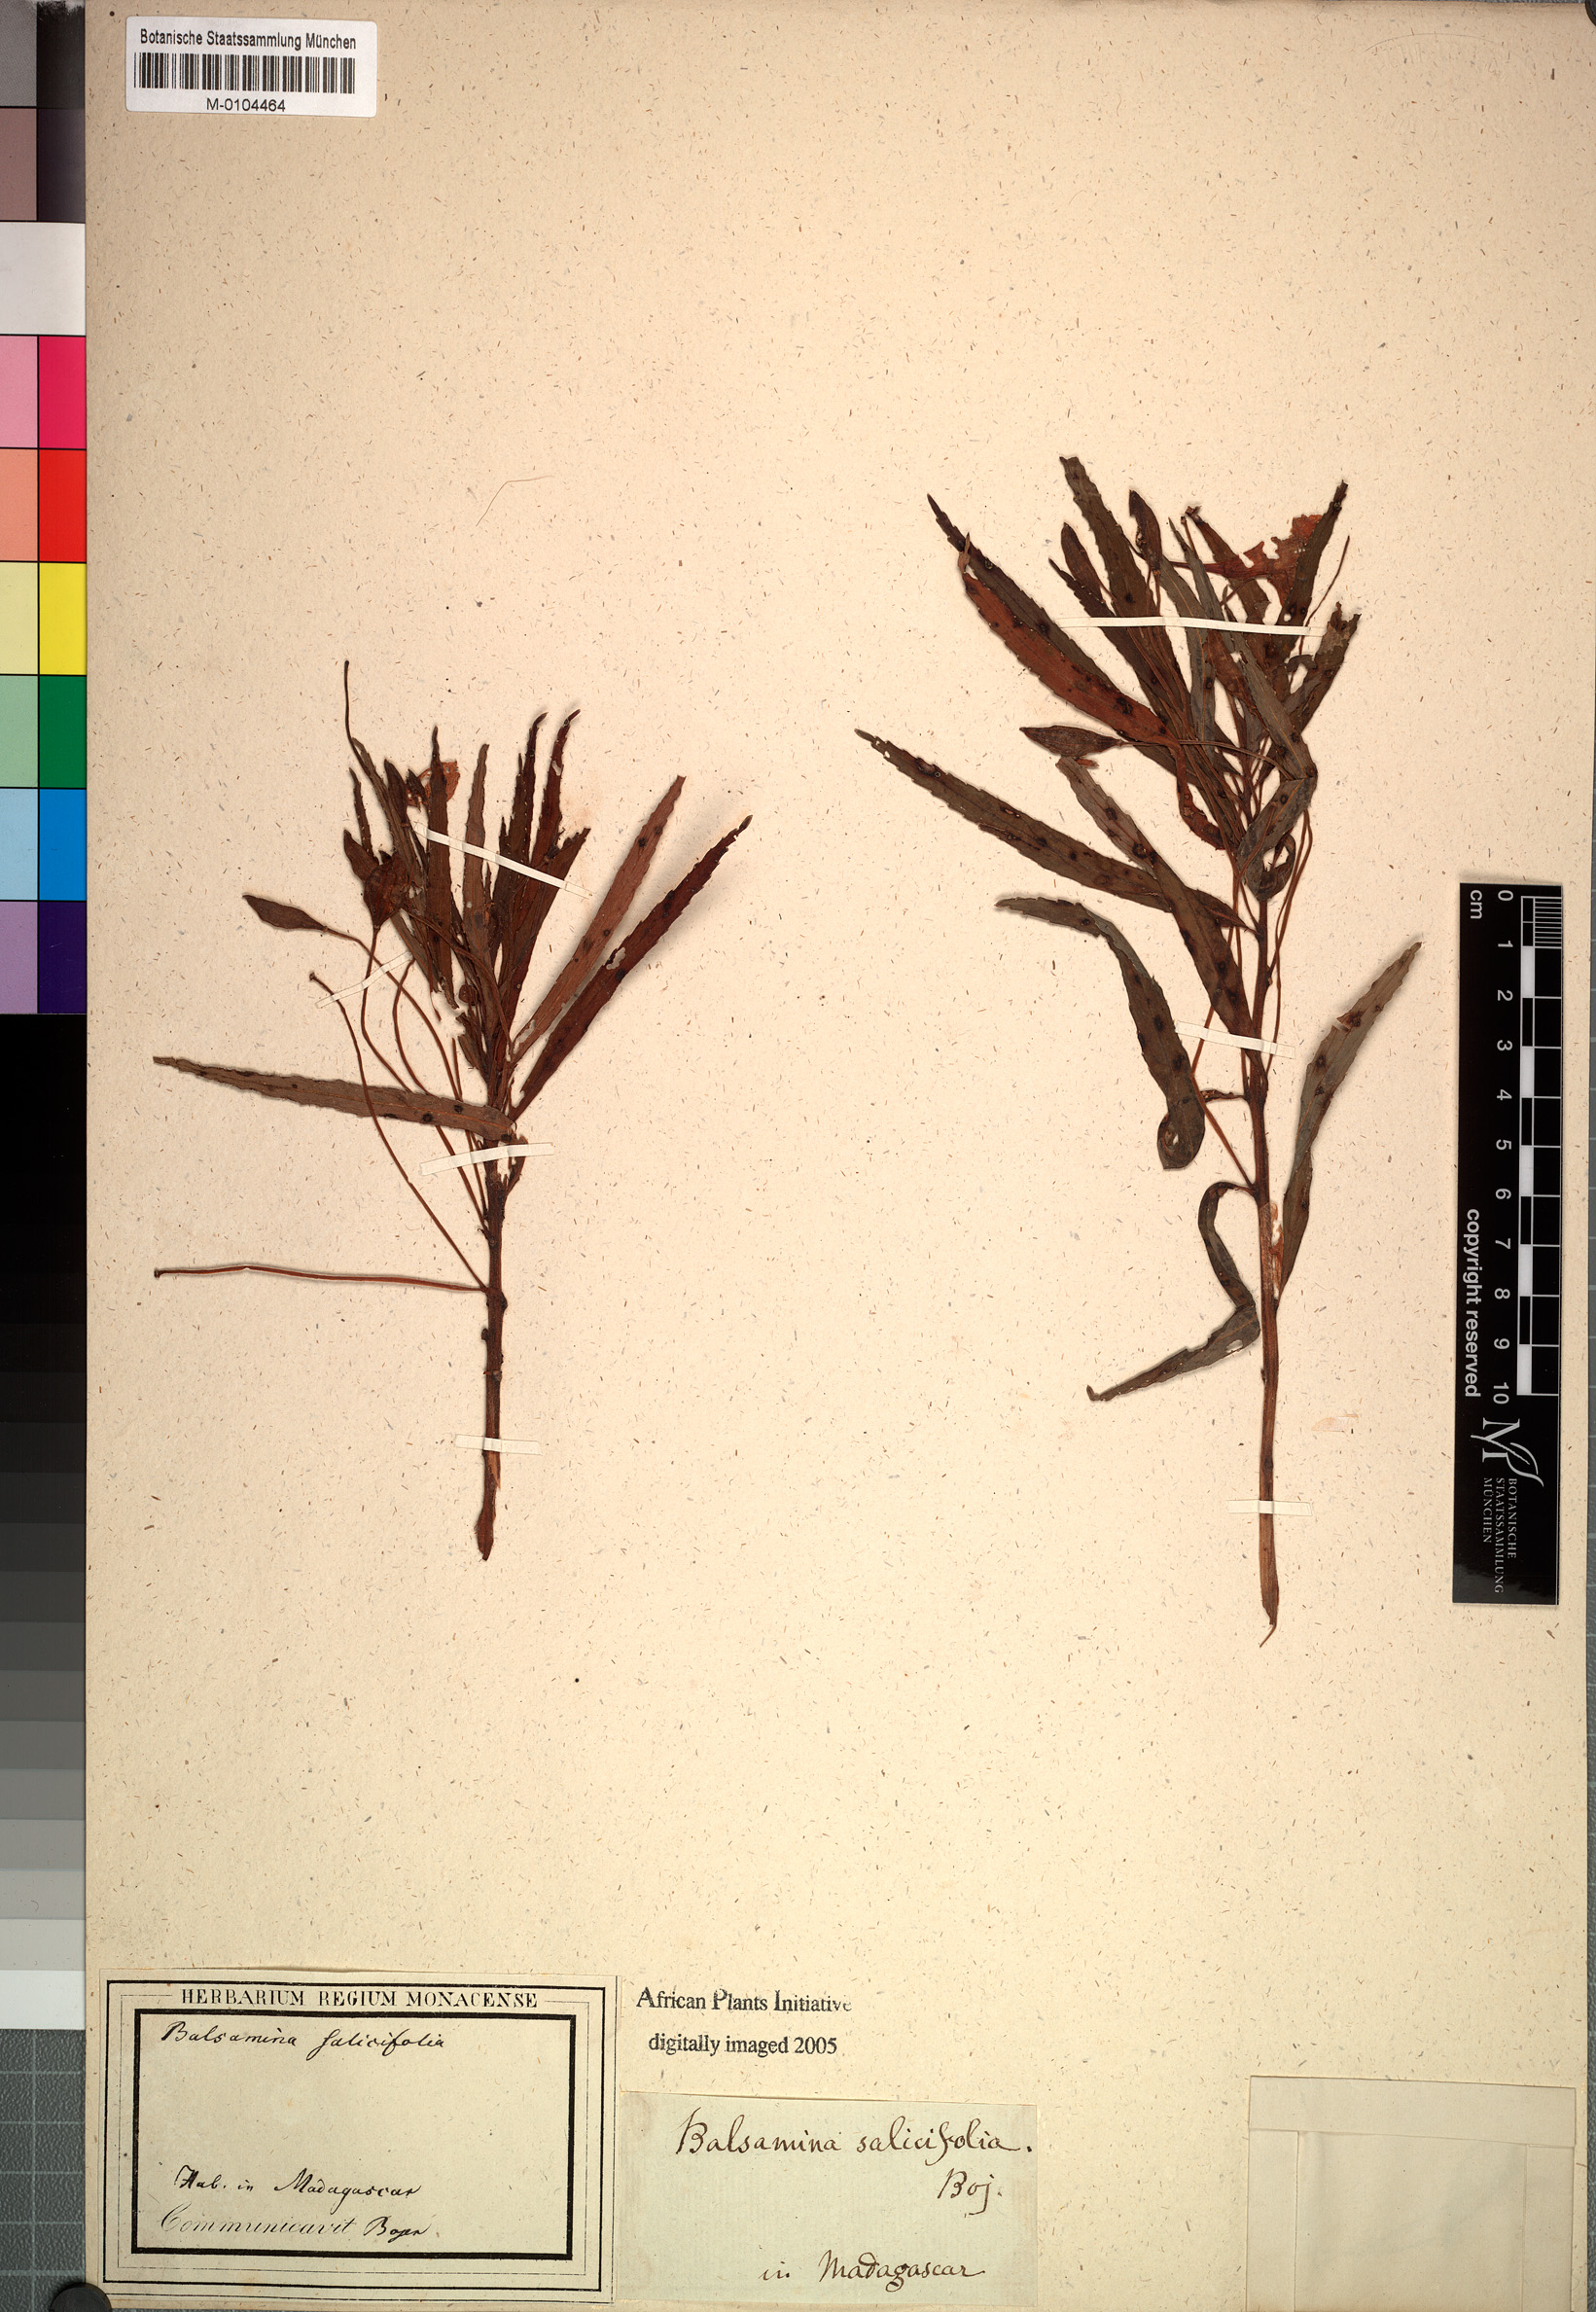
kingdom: Plantae
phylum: Tracheophyta
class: Magnoliopsida
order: Ericales
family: Balsaminaceae
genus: Impatiens
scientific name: Impatiens rutenbergii
